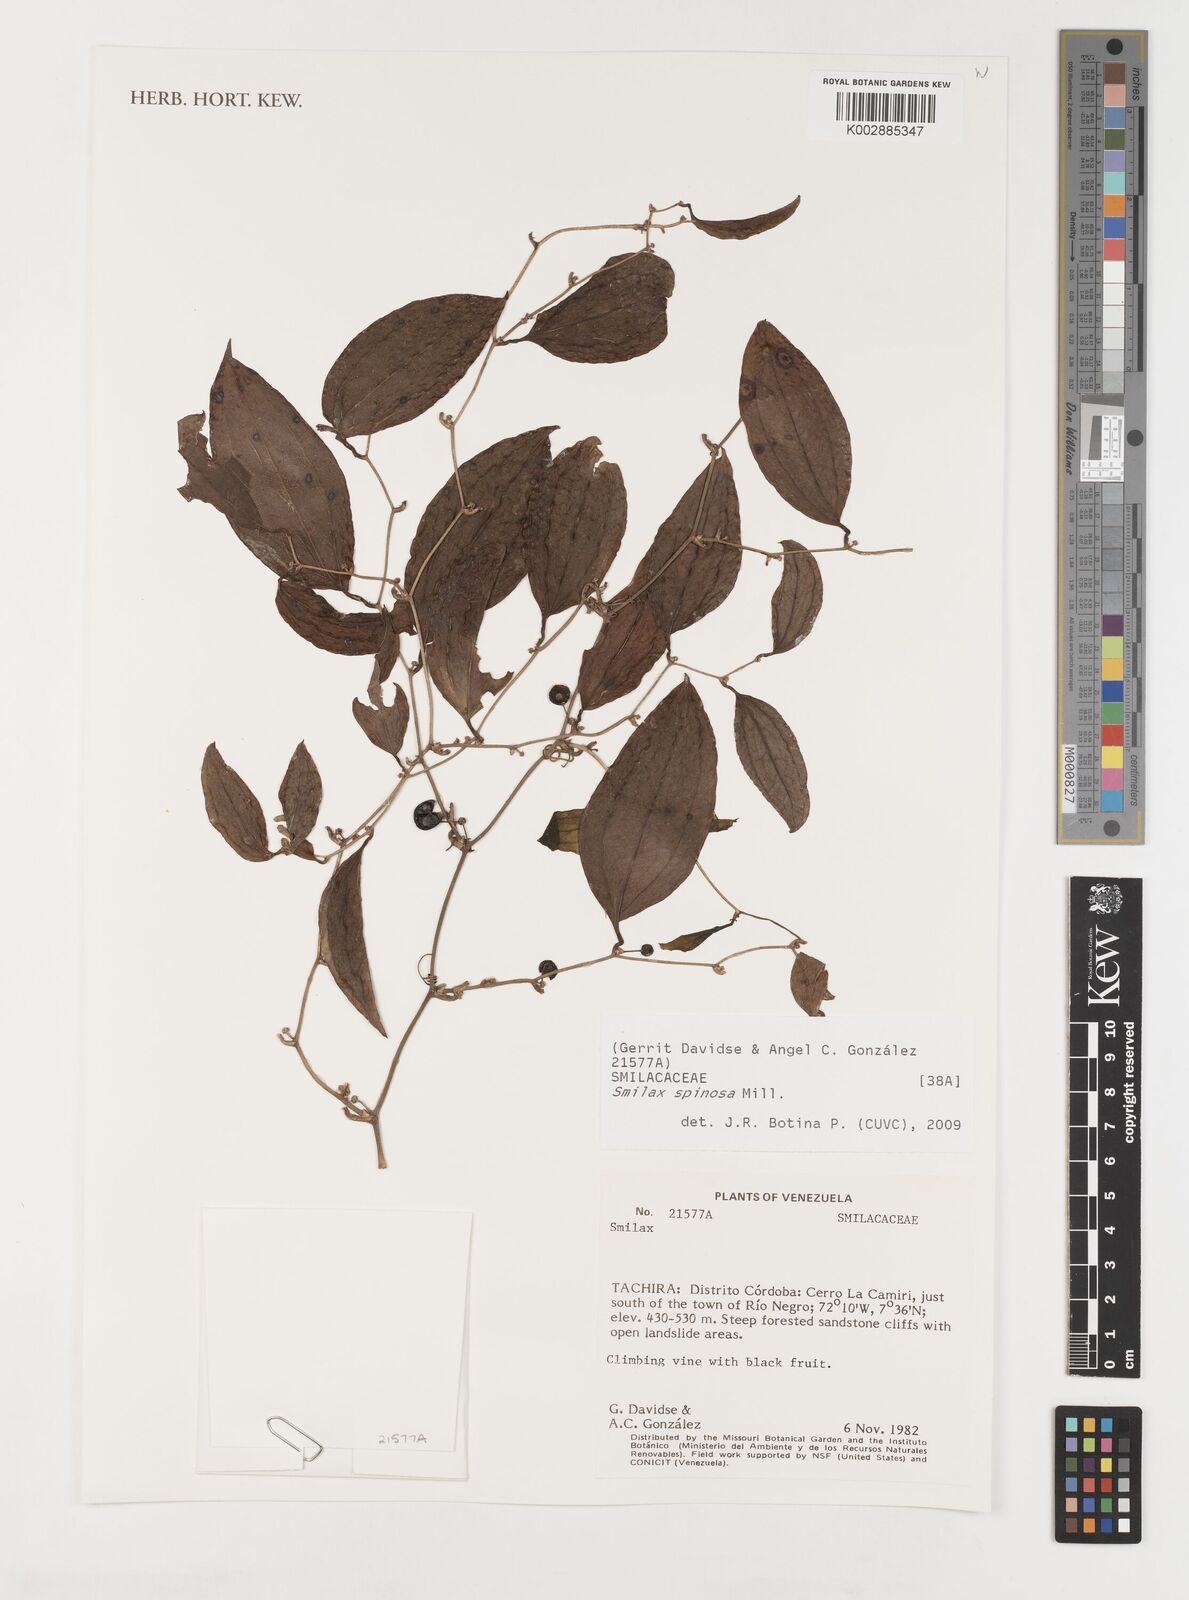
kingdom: Plantae
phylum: Tracheophyta
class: Liliopsida
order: Liliales
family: Smilacaceae
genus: Smilax
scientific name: Smilax spinosa
